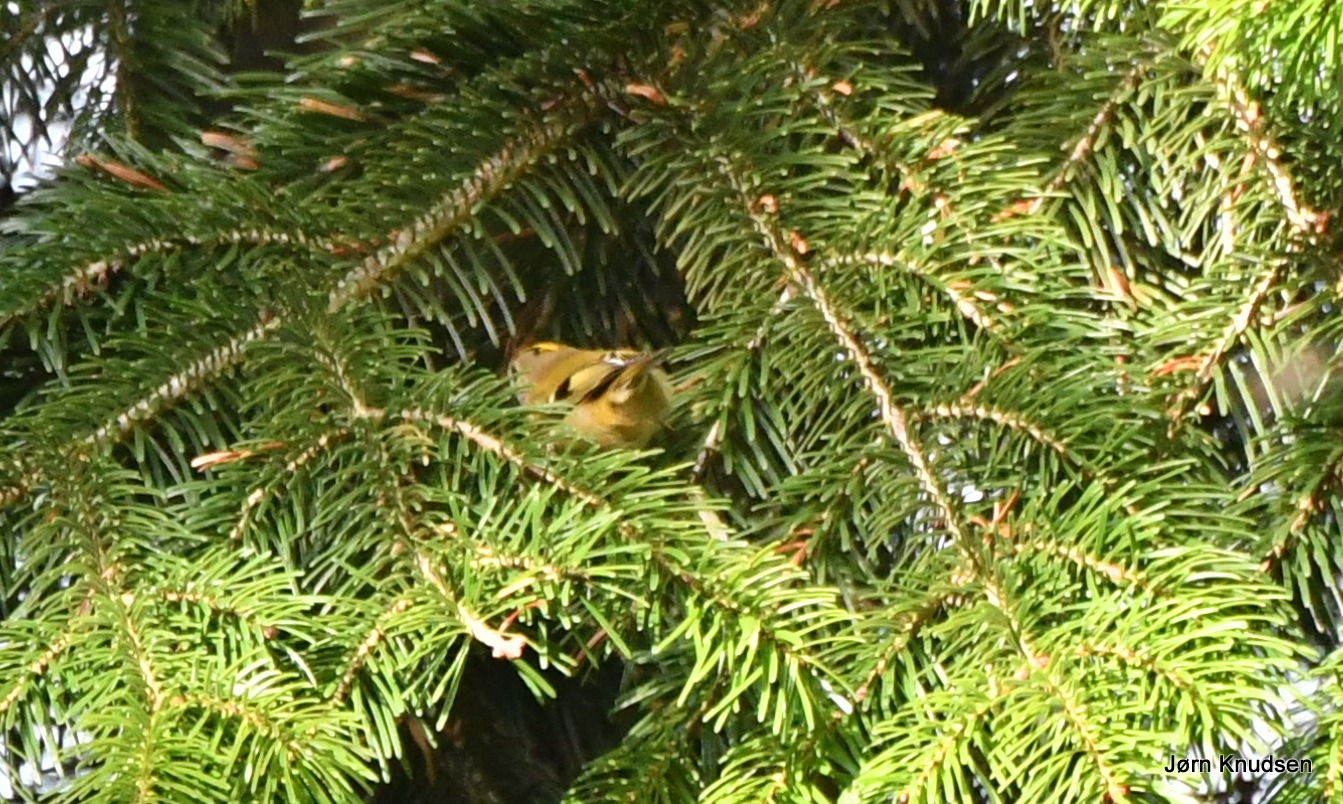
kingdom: Animalia
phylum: Chordata
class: Aves
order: Passeriformes
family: Regulidae
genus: Regulus
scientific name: Regulus regulus
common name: Fuglekonge
